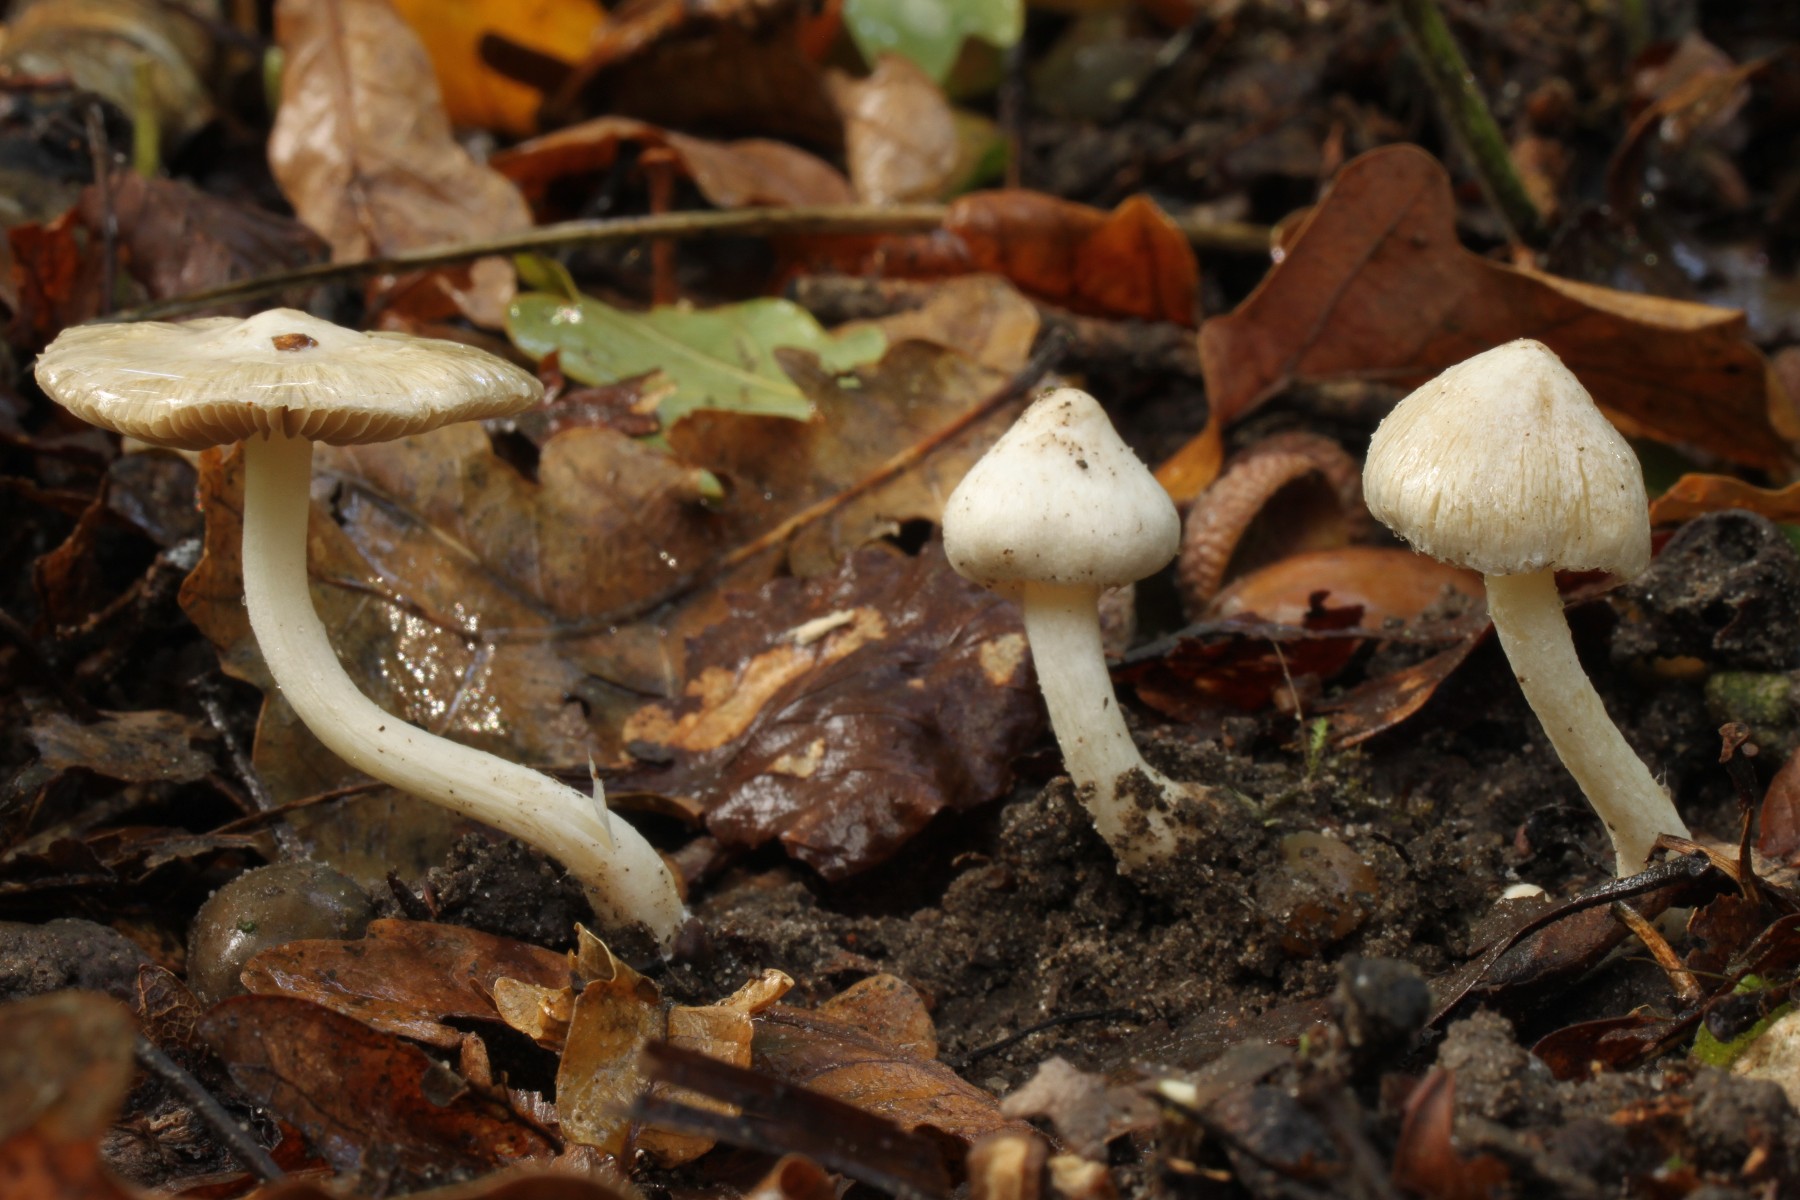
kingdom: Fungi
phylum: Basidiomycota
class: Agaricomycetes
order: Agaricales
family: Inocybaceae
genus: Inocybe
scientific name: Inocybe
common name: almindelig trævlhat
